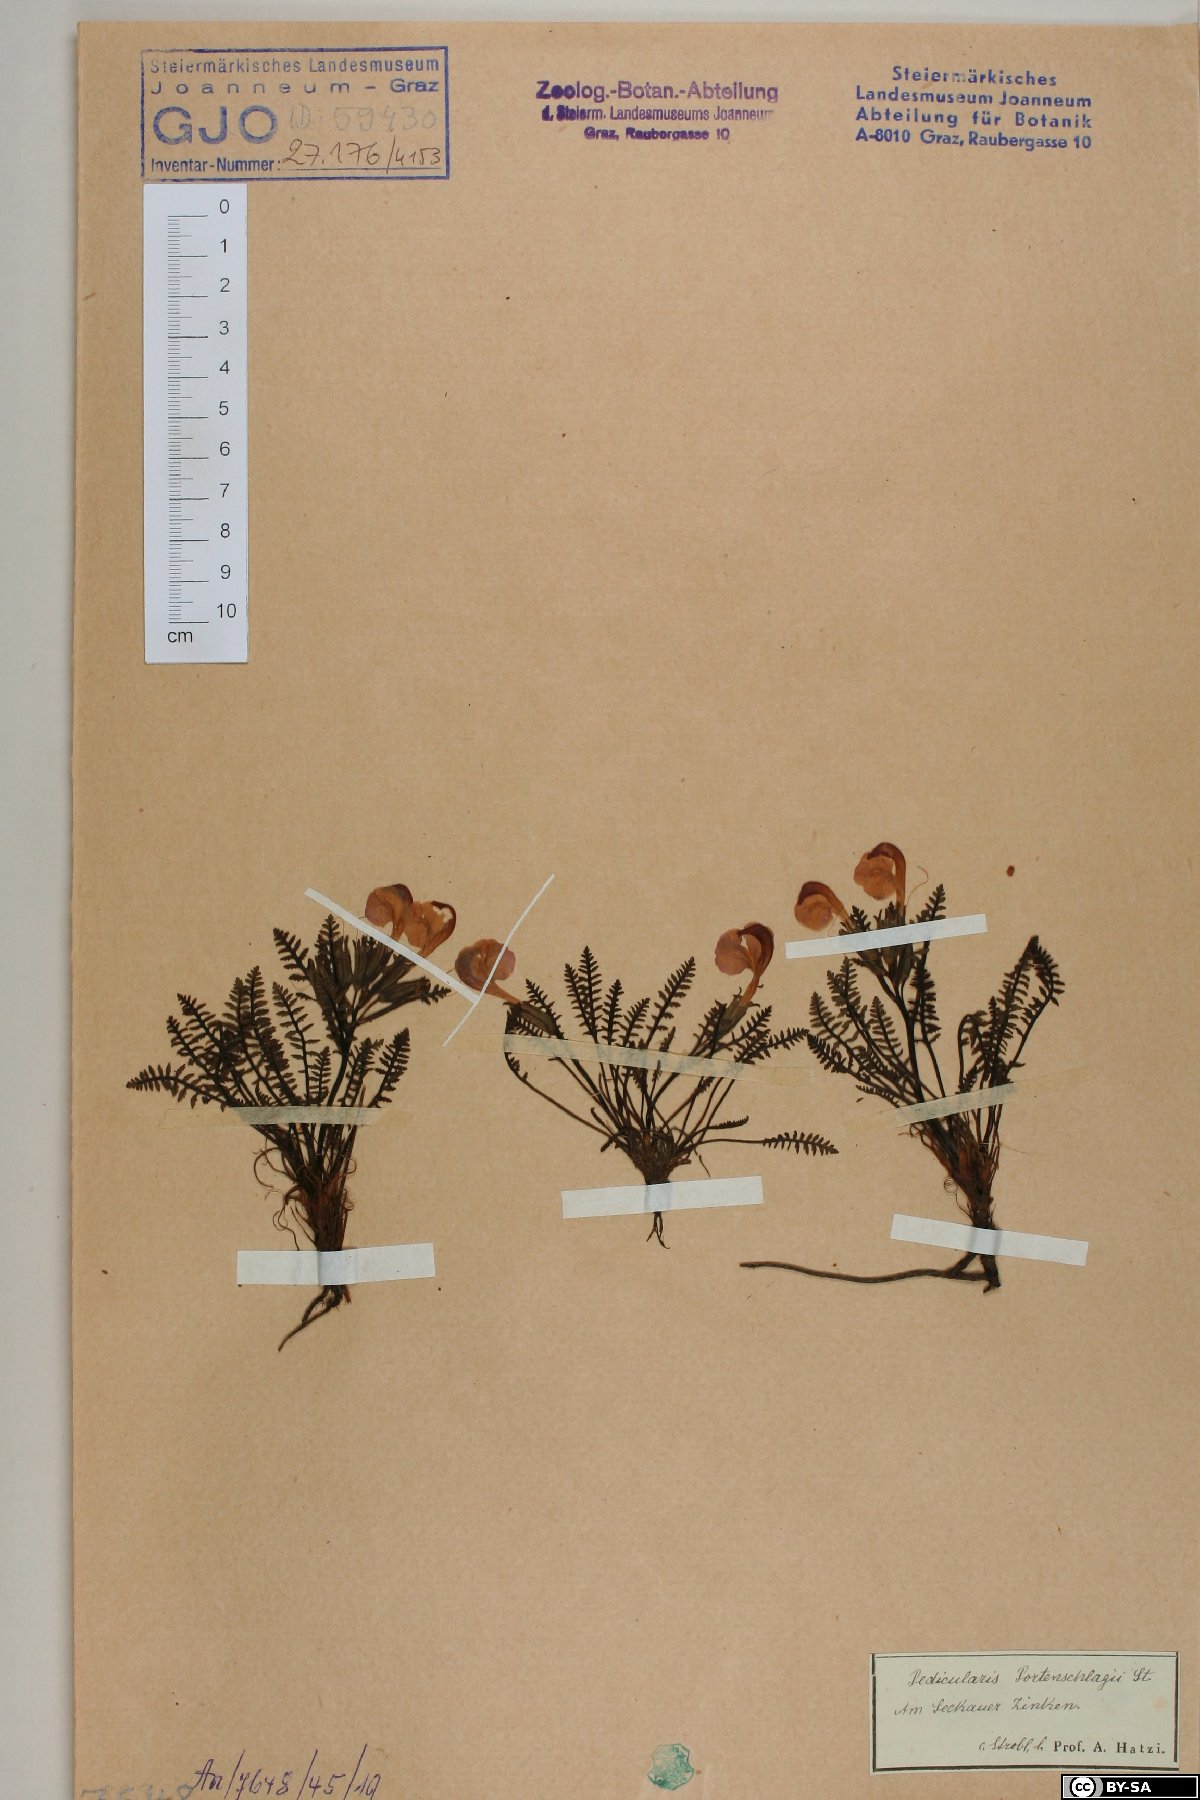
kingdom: Plantae
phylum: Tracheophyta
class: Magnoliopsida
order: Lamiales
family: Orobanchaceae
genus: Pedicularis
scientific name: Pedicularis portenschlagii
